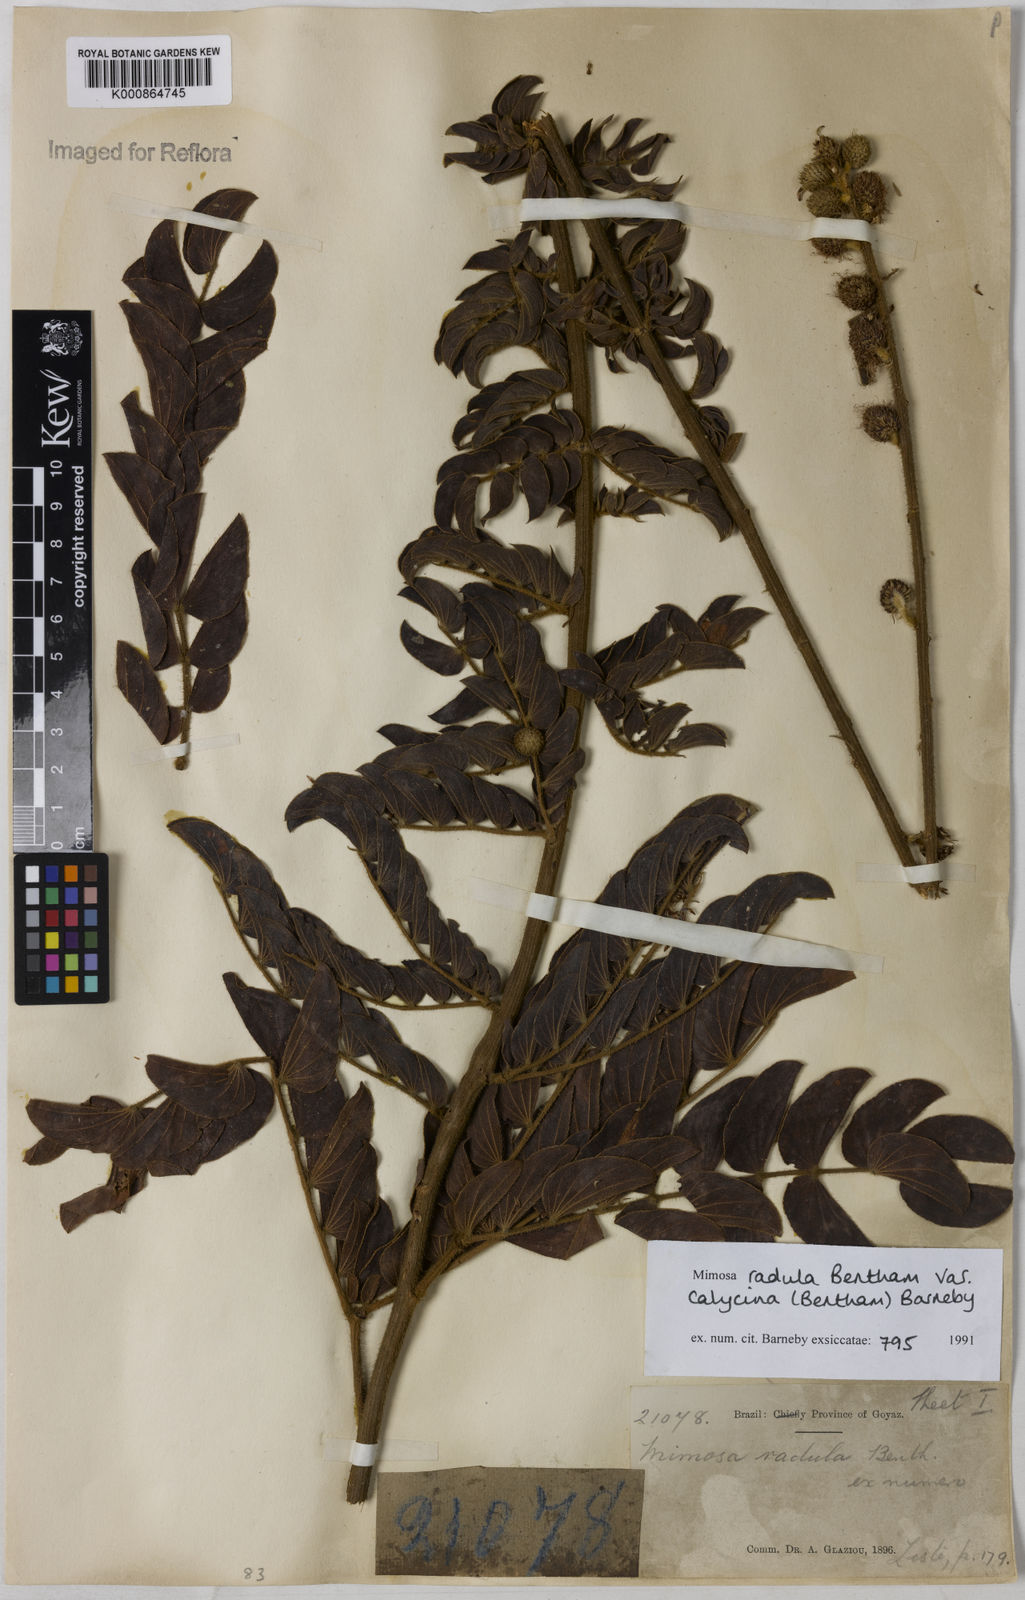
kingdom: Plantae
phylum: Tracheophyta
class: Magnoliopsida
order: Fabales
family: Fabaceae
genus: Mimosa
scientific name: Mimosa radula
